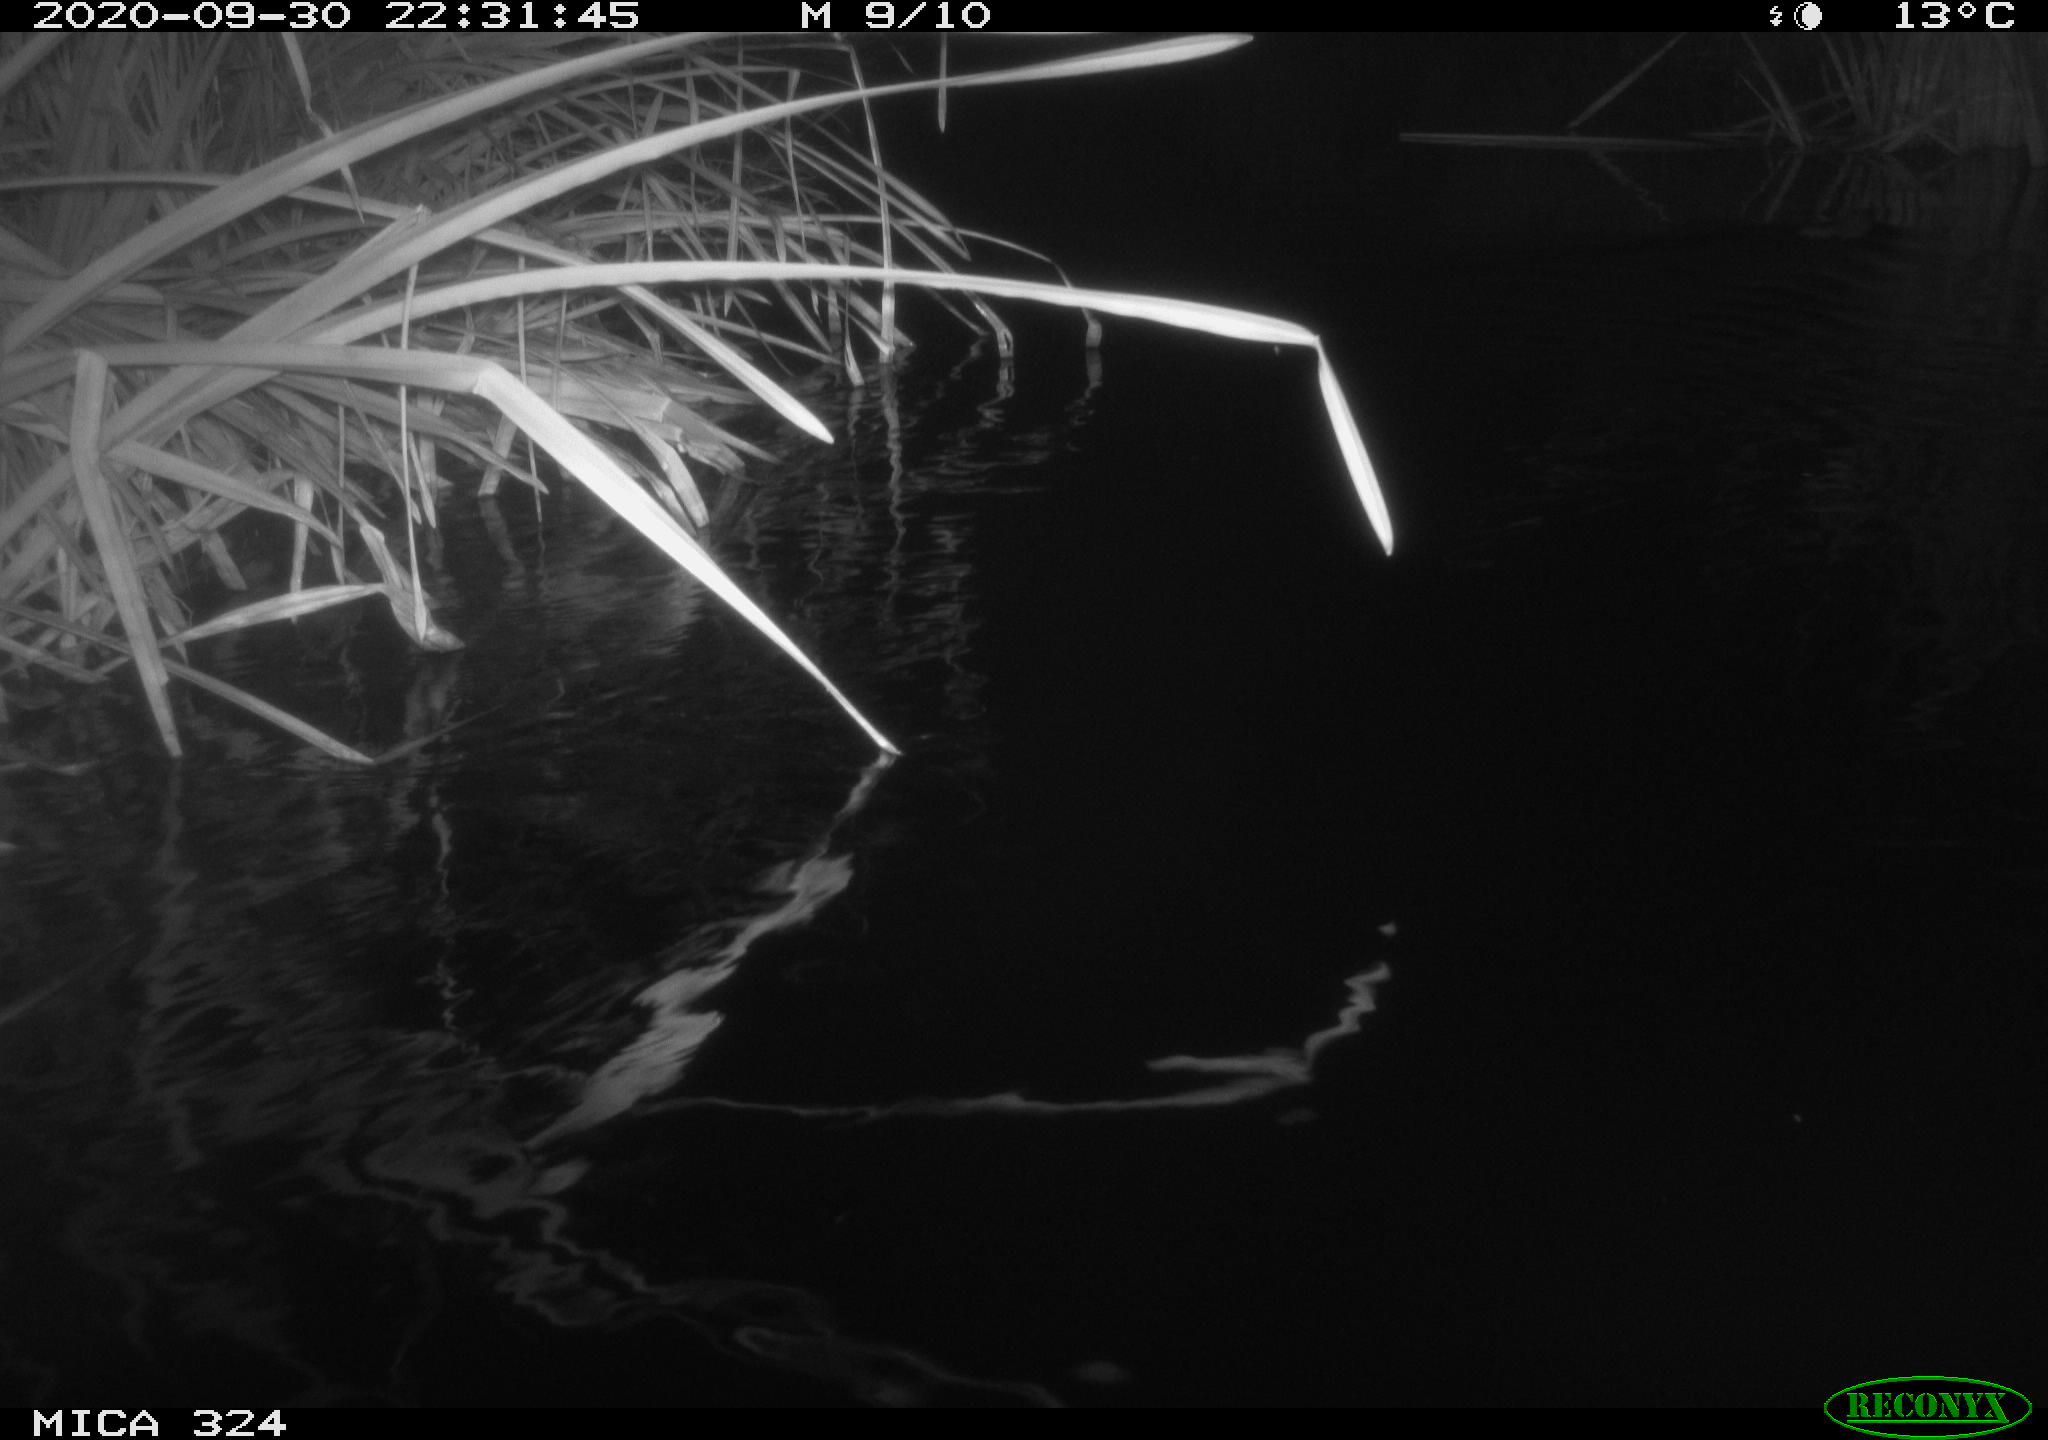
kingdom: Animalia
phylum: Chordata
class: Mammalia
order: Rodentia
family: Cricetidae
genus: Ondatra
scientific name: Ondatra zibethicus
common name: Muskrat
